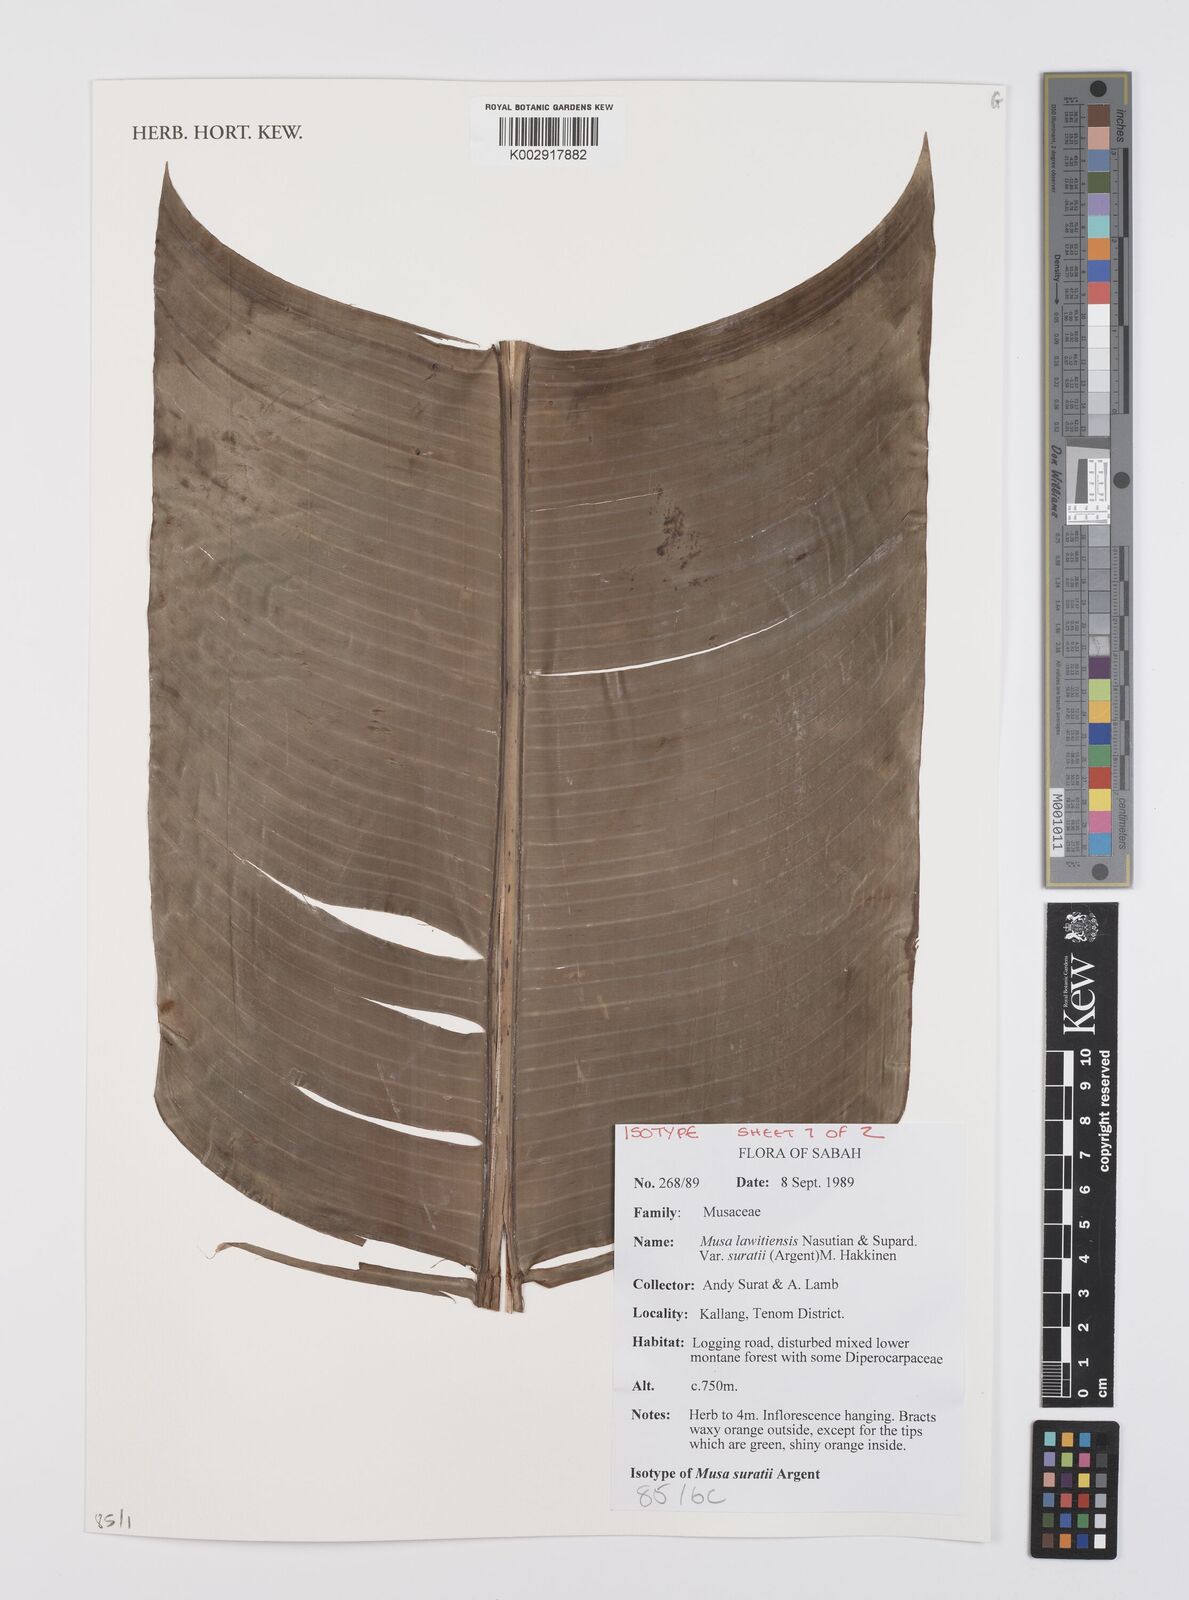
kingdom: Plantae
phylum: Tracheophyta
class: Liliopsida
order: Zingiberales
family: Musaceae
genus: Musa
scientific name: Musa lawitiensis
